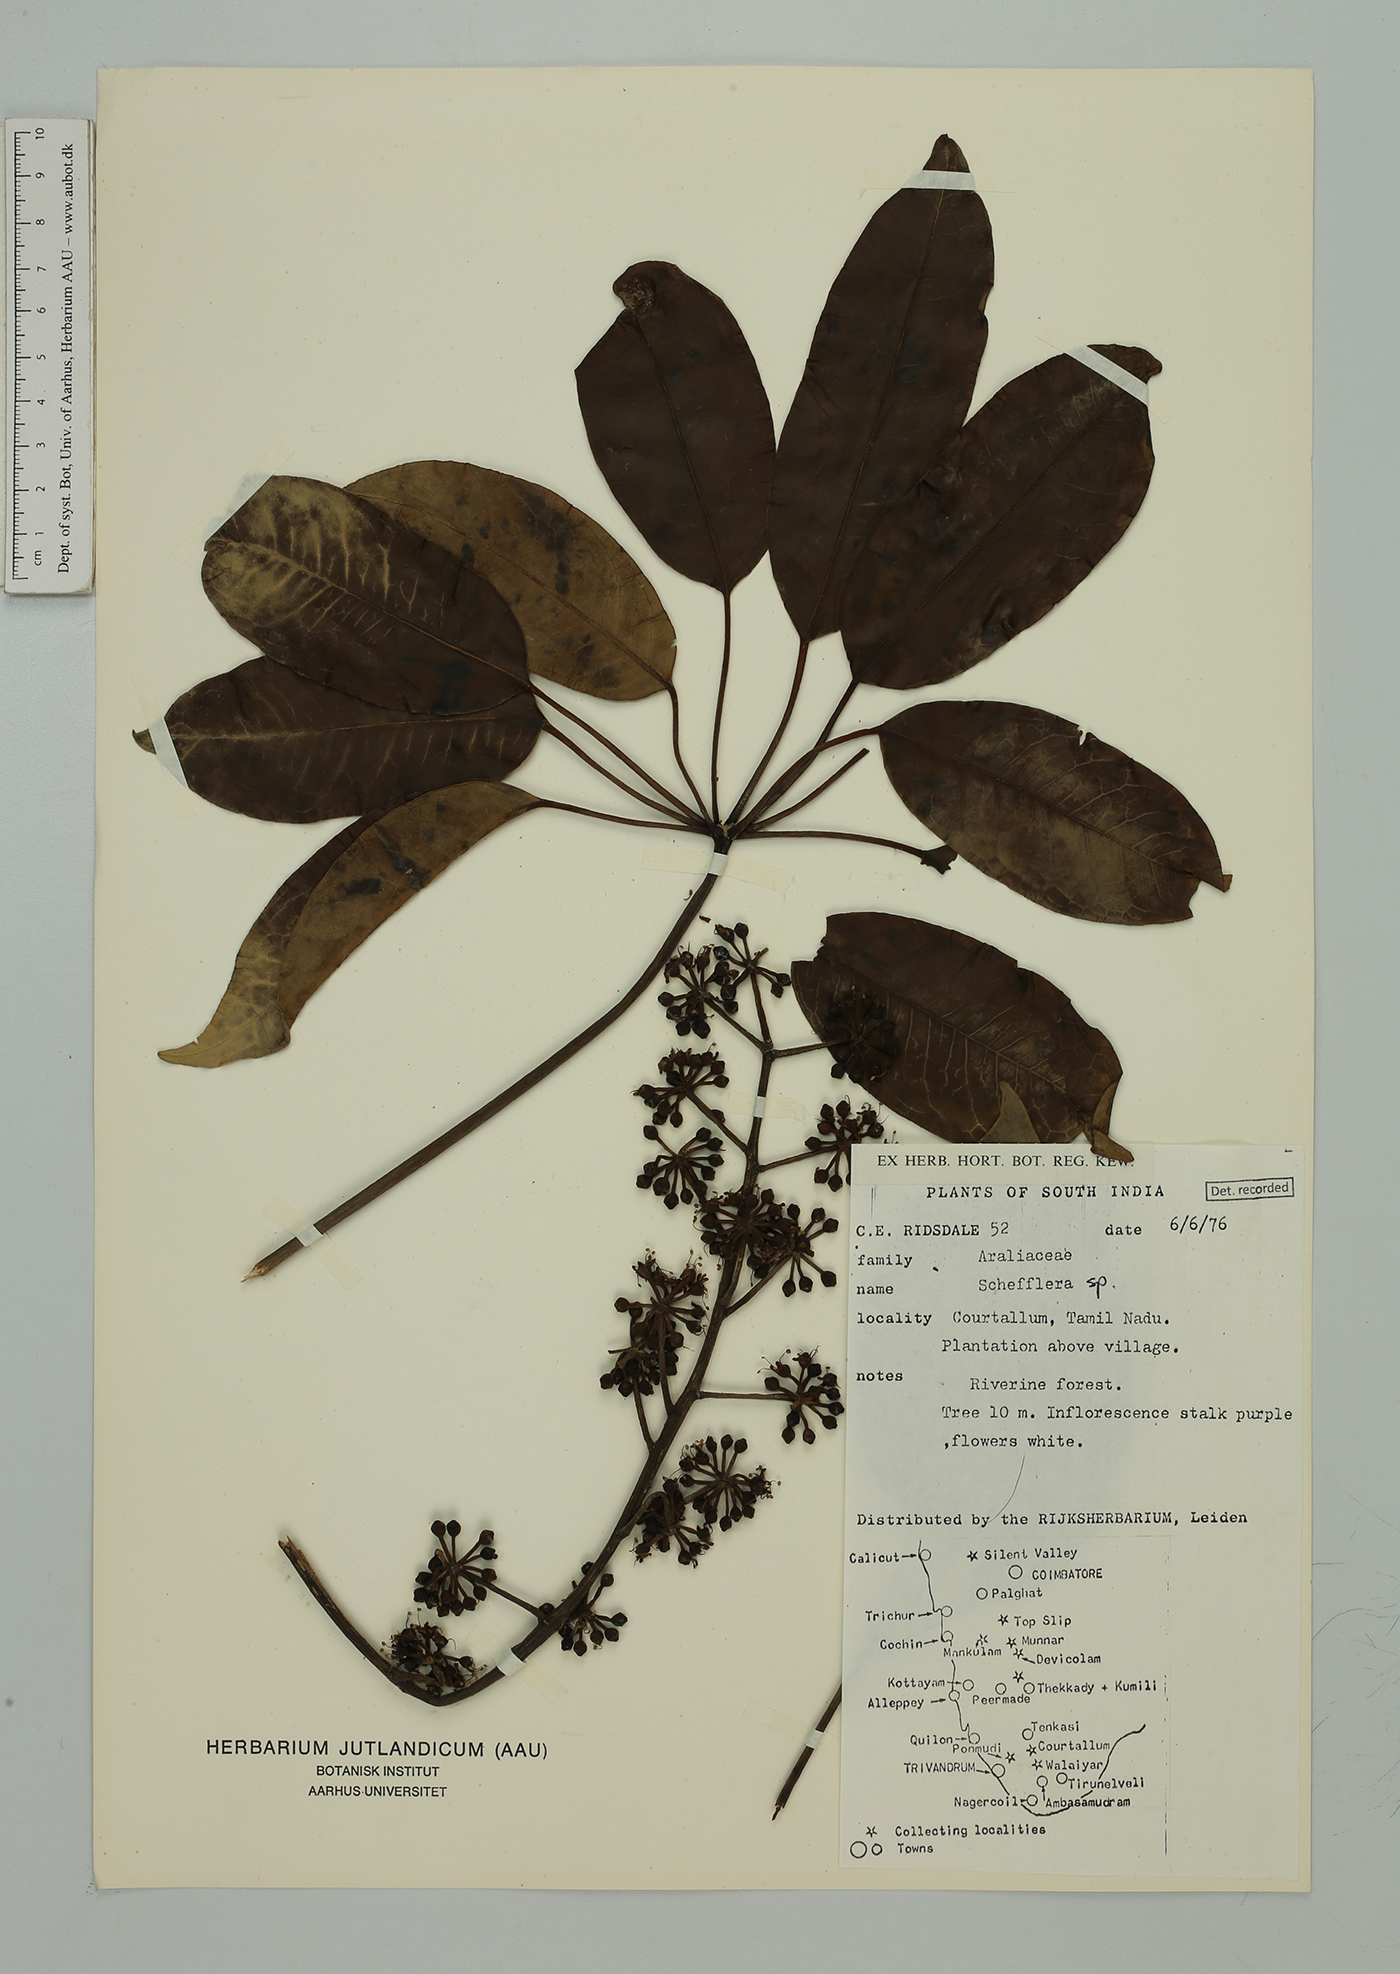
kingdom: Plantae
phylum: Tracheophyta
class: Magnoliopsida
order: Apiales
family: Araliaceae
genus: Schefflera
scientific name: Schefflera
